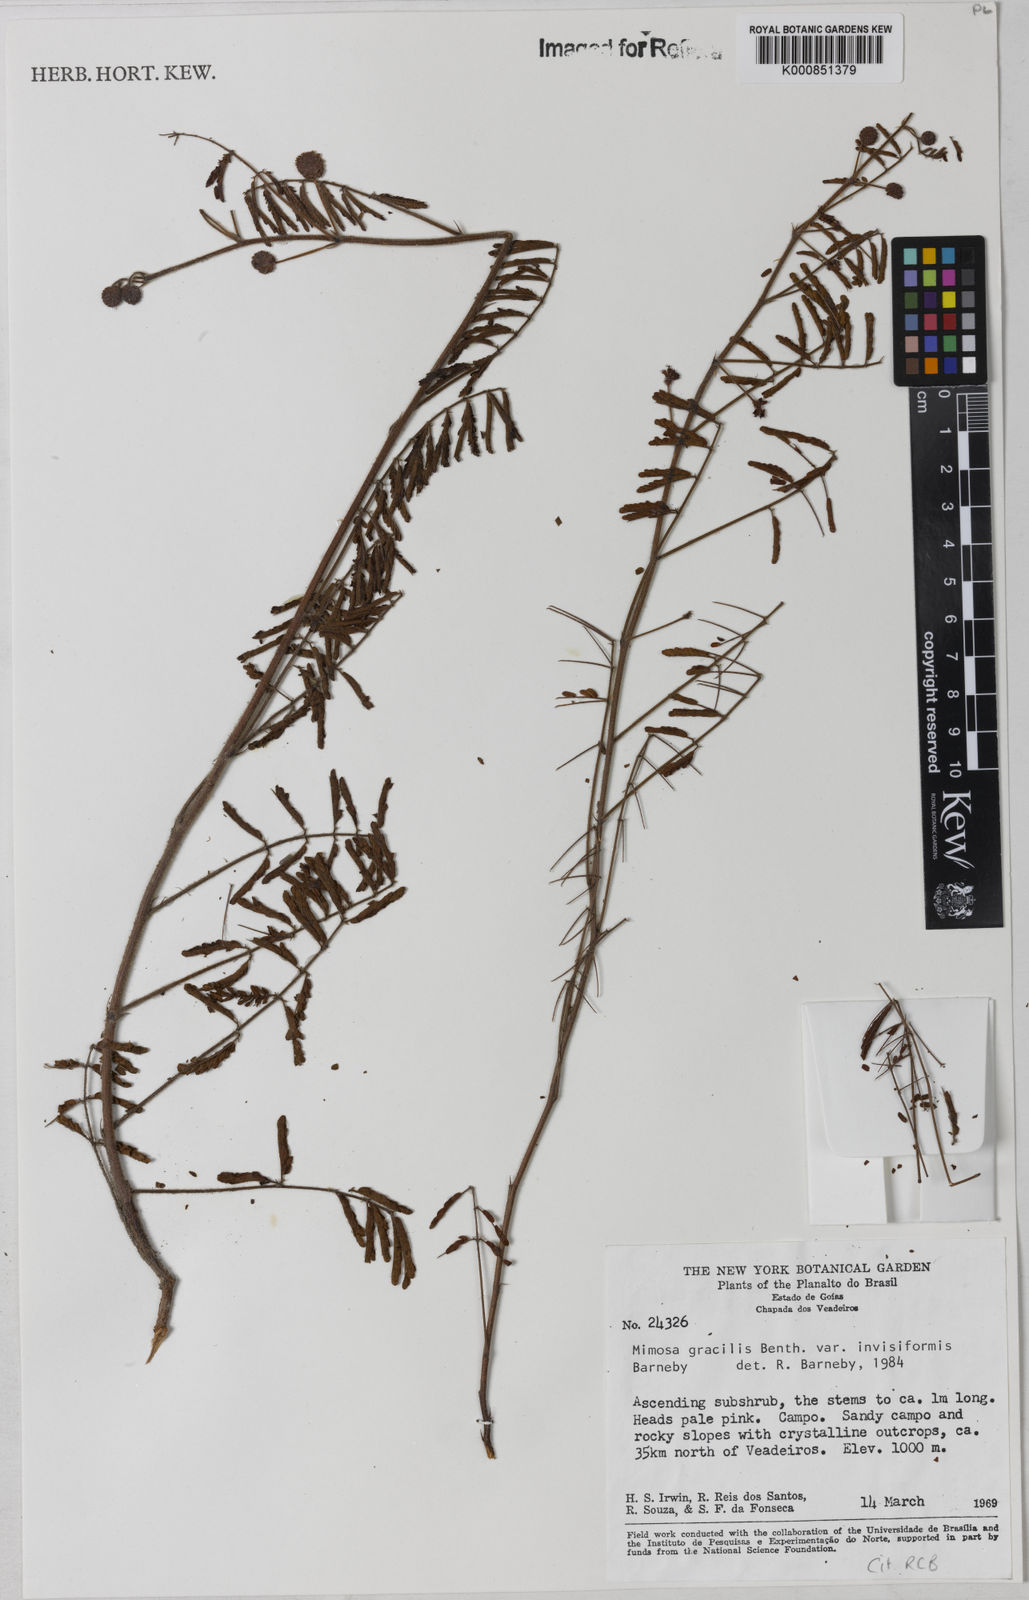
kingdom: Plantae
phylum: Tracheophyta
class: Magnoliopsida
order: Fabales
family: Fabaceae
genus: Mimosa
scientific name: Mimosa gracilis
